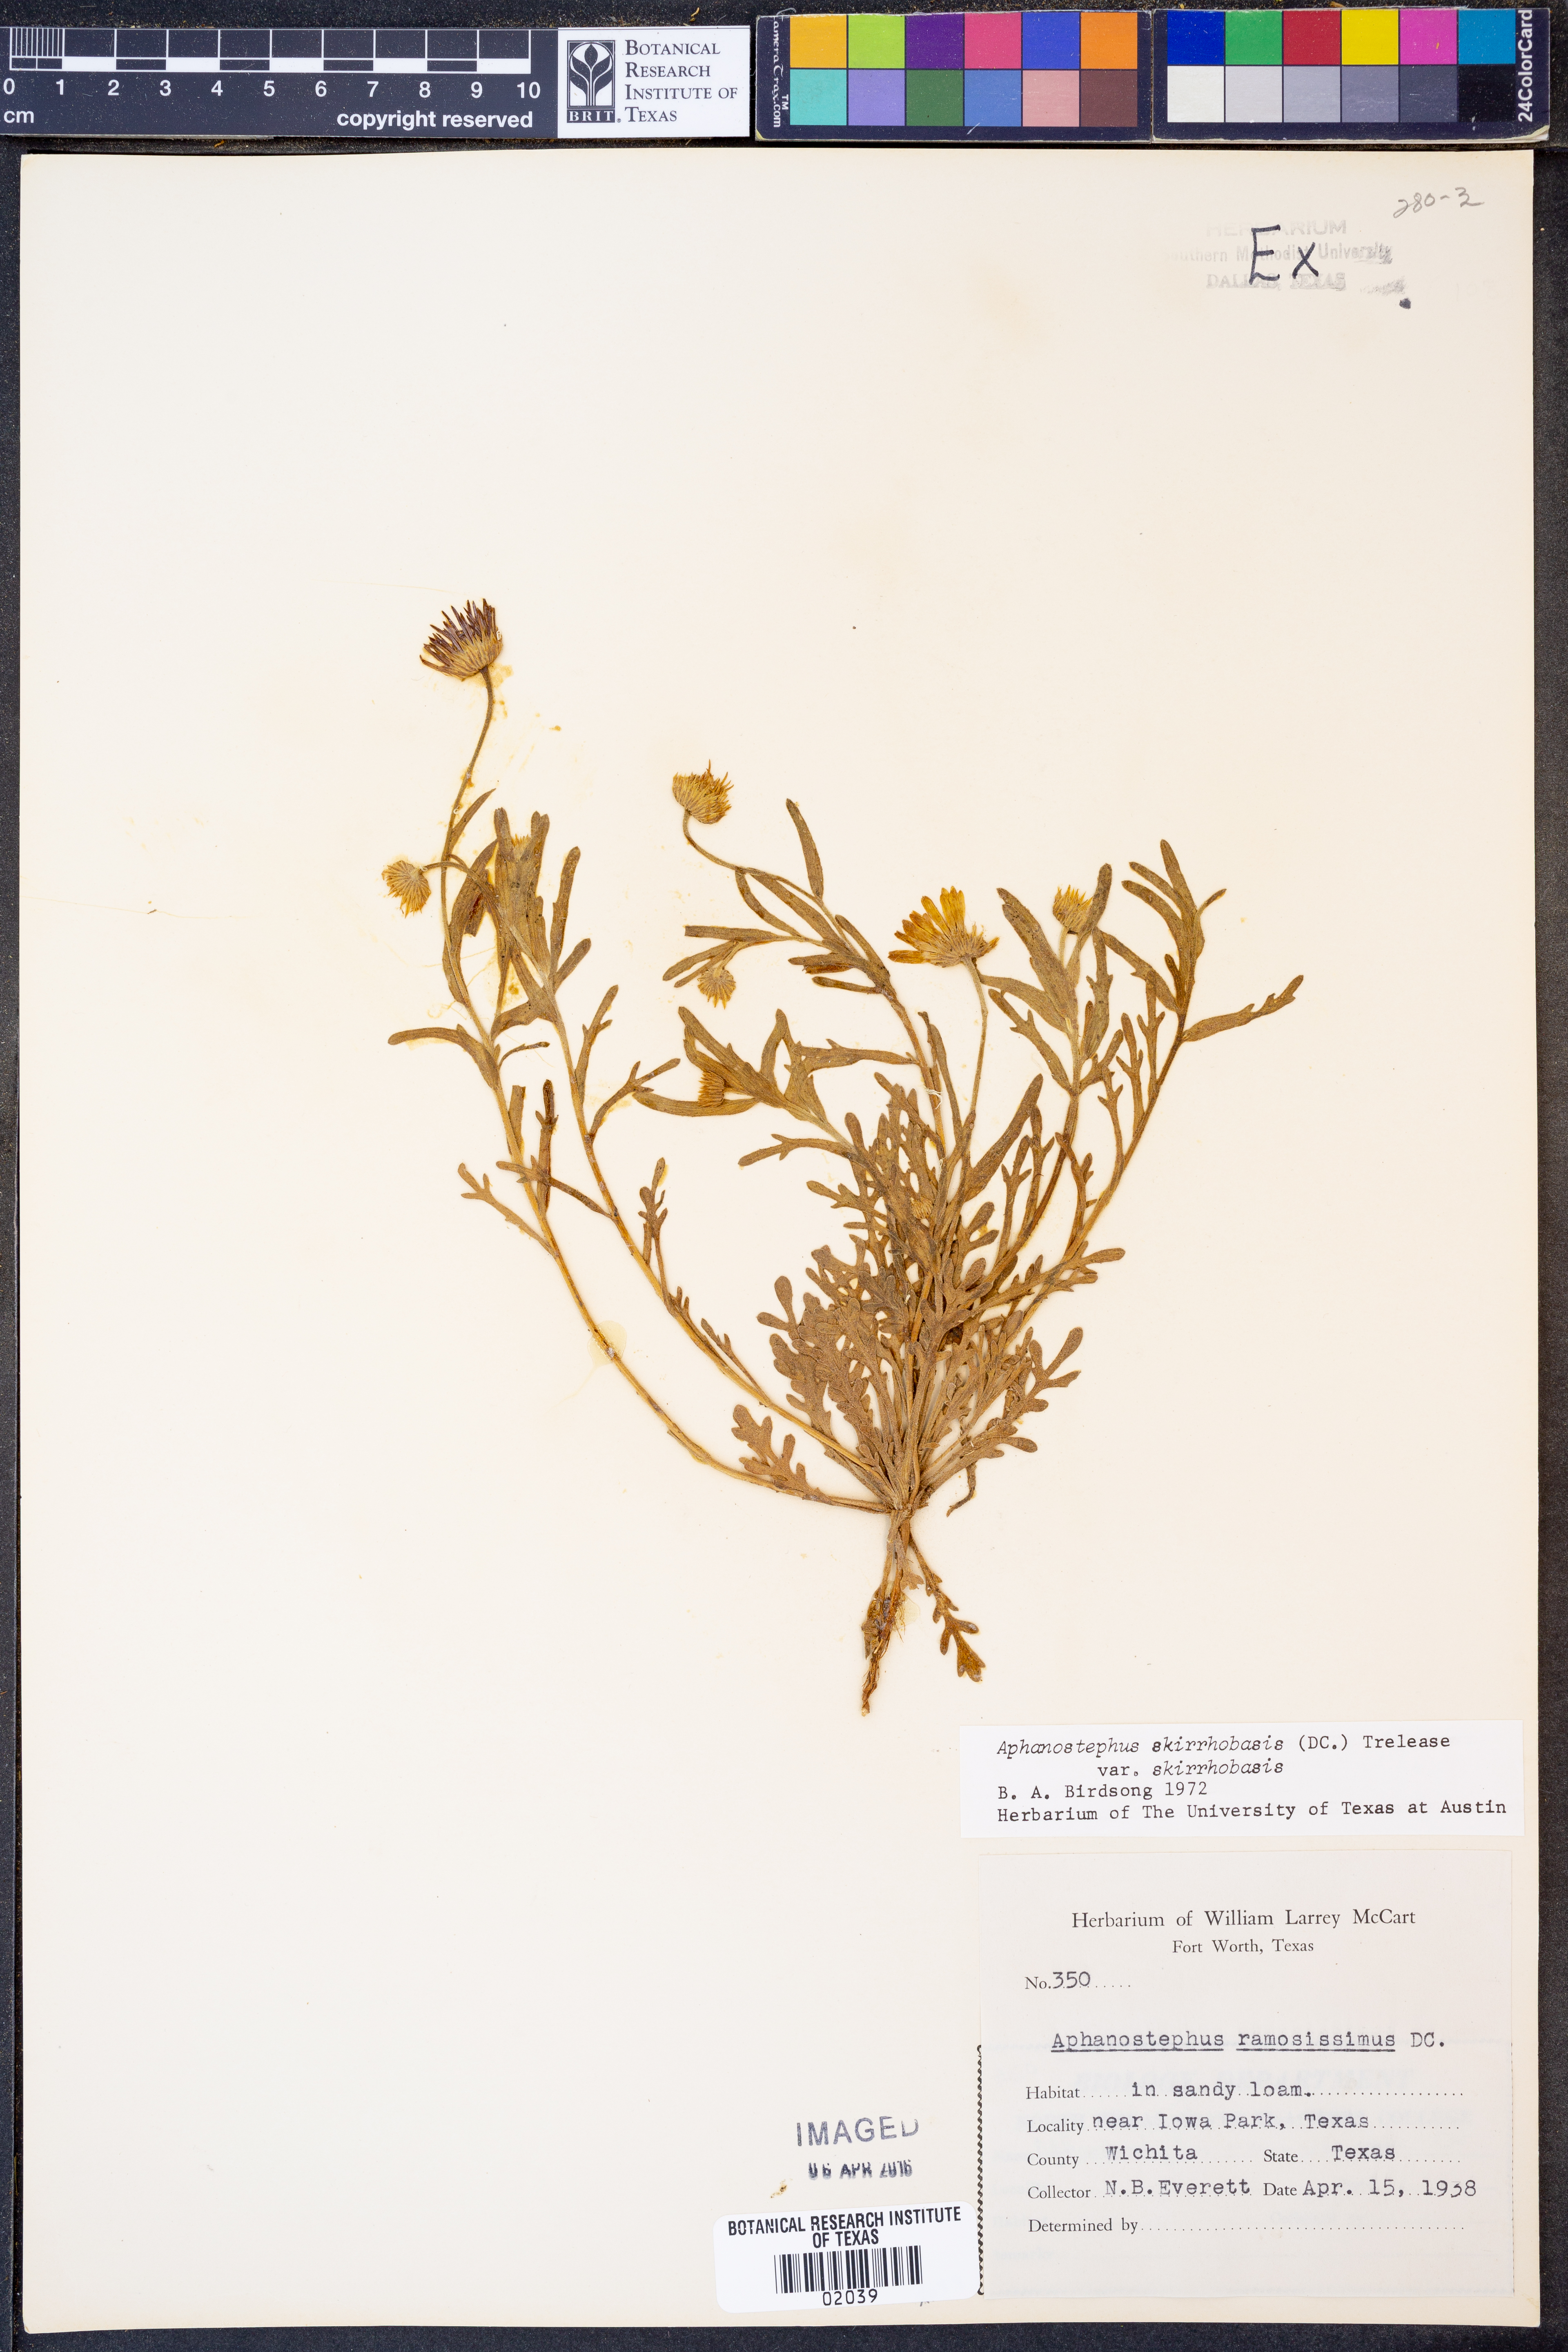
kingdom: Plantae
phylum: Tracheophyta
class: Magnoliopsida
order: Asterales
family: Asteraceae
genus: Aphanostephus
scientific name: Aphanostephus skirrhobasis
